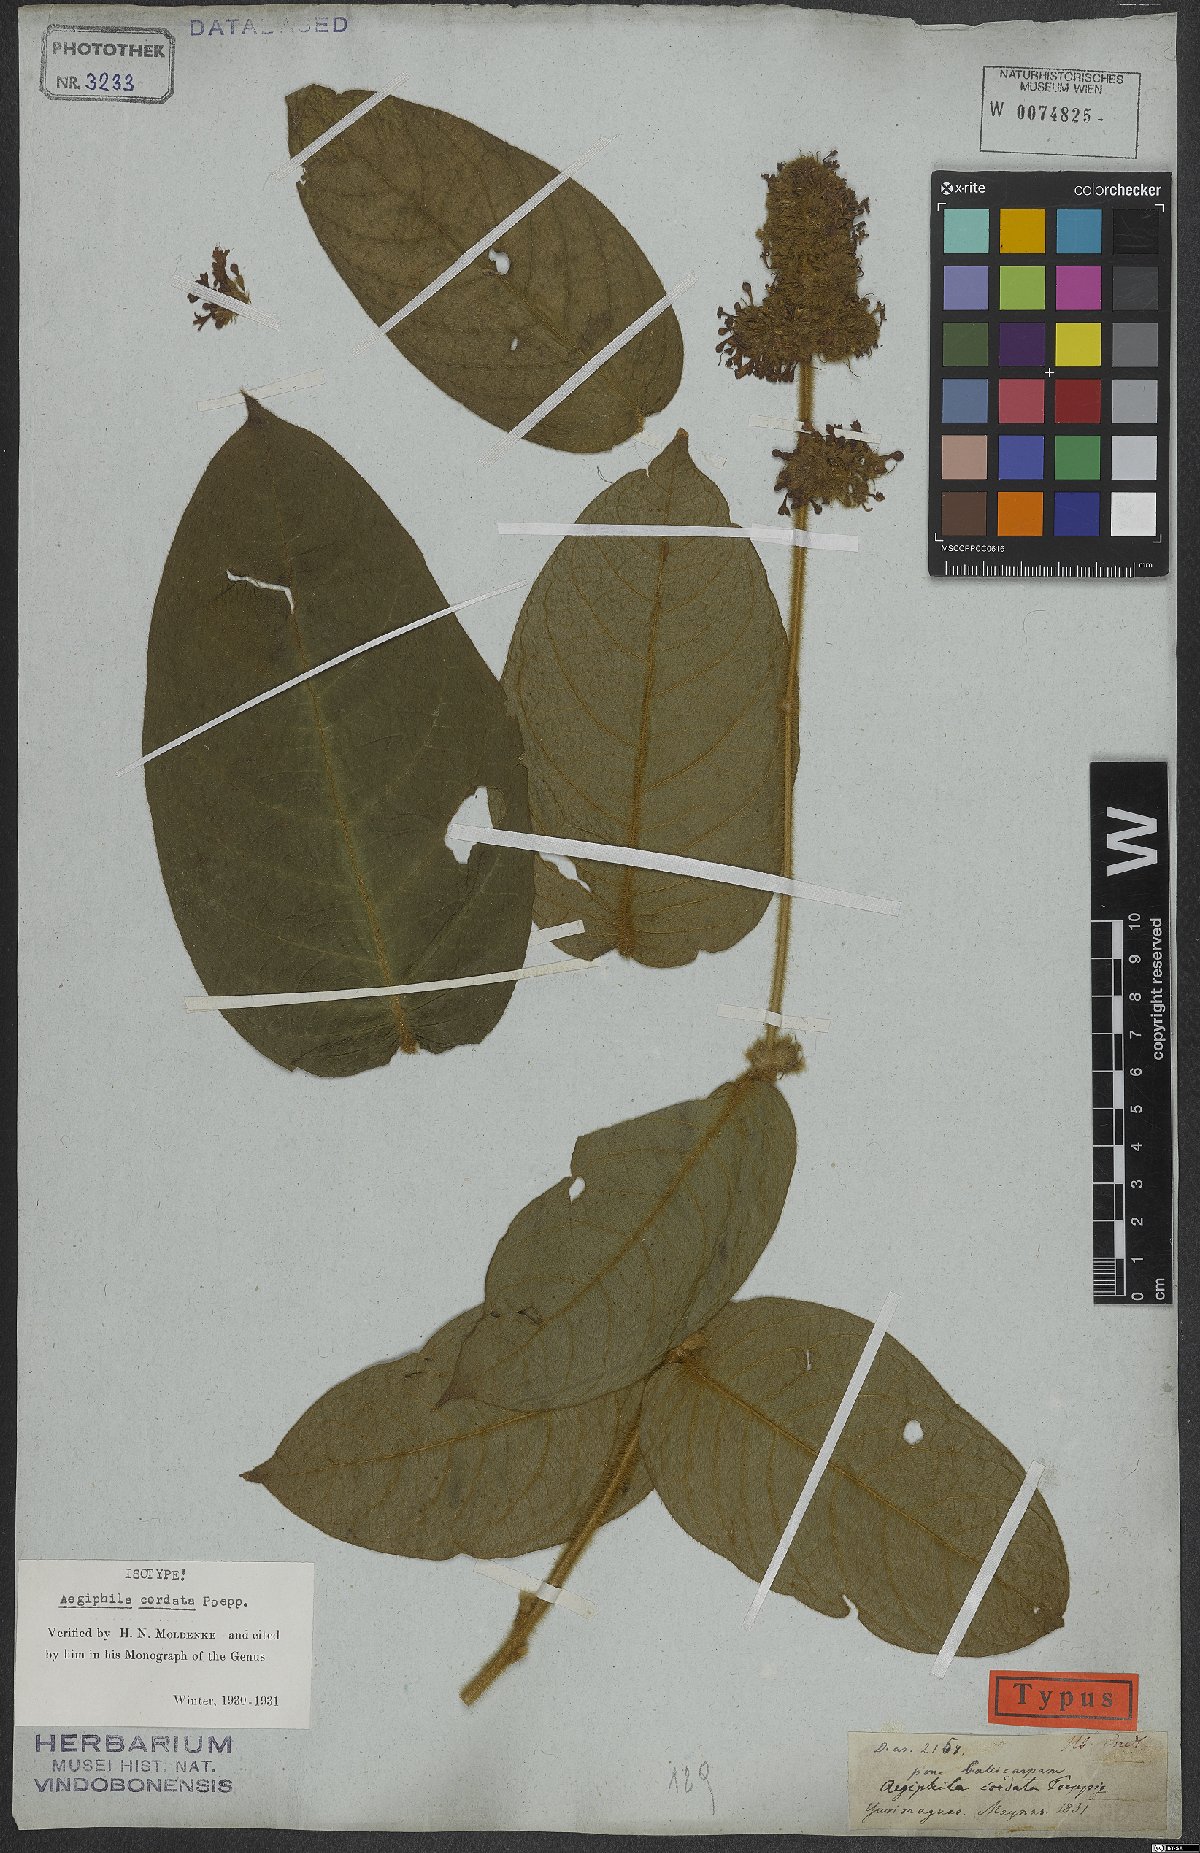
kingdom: Plantae
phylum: Tracheophyta
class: Magnoliopsida
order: Lamiales
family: Lamiaceae
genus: Aegiphila
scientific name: Aegiphila cordata
